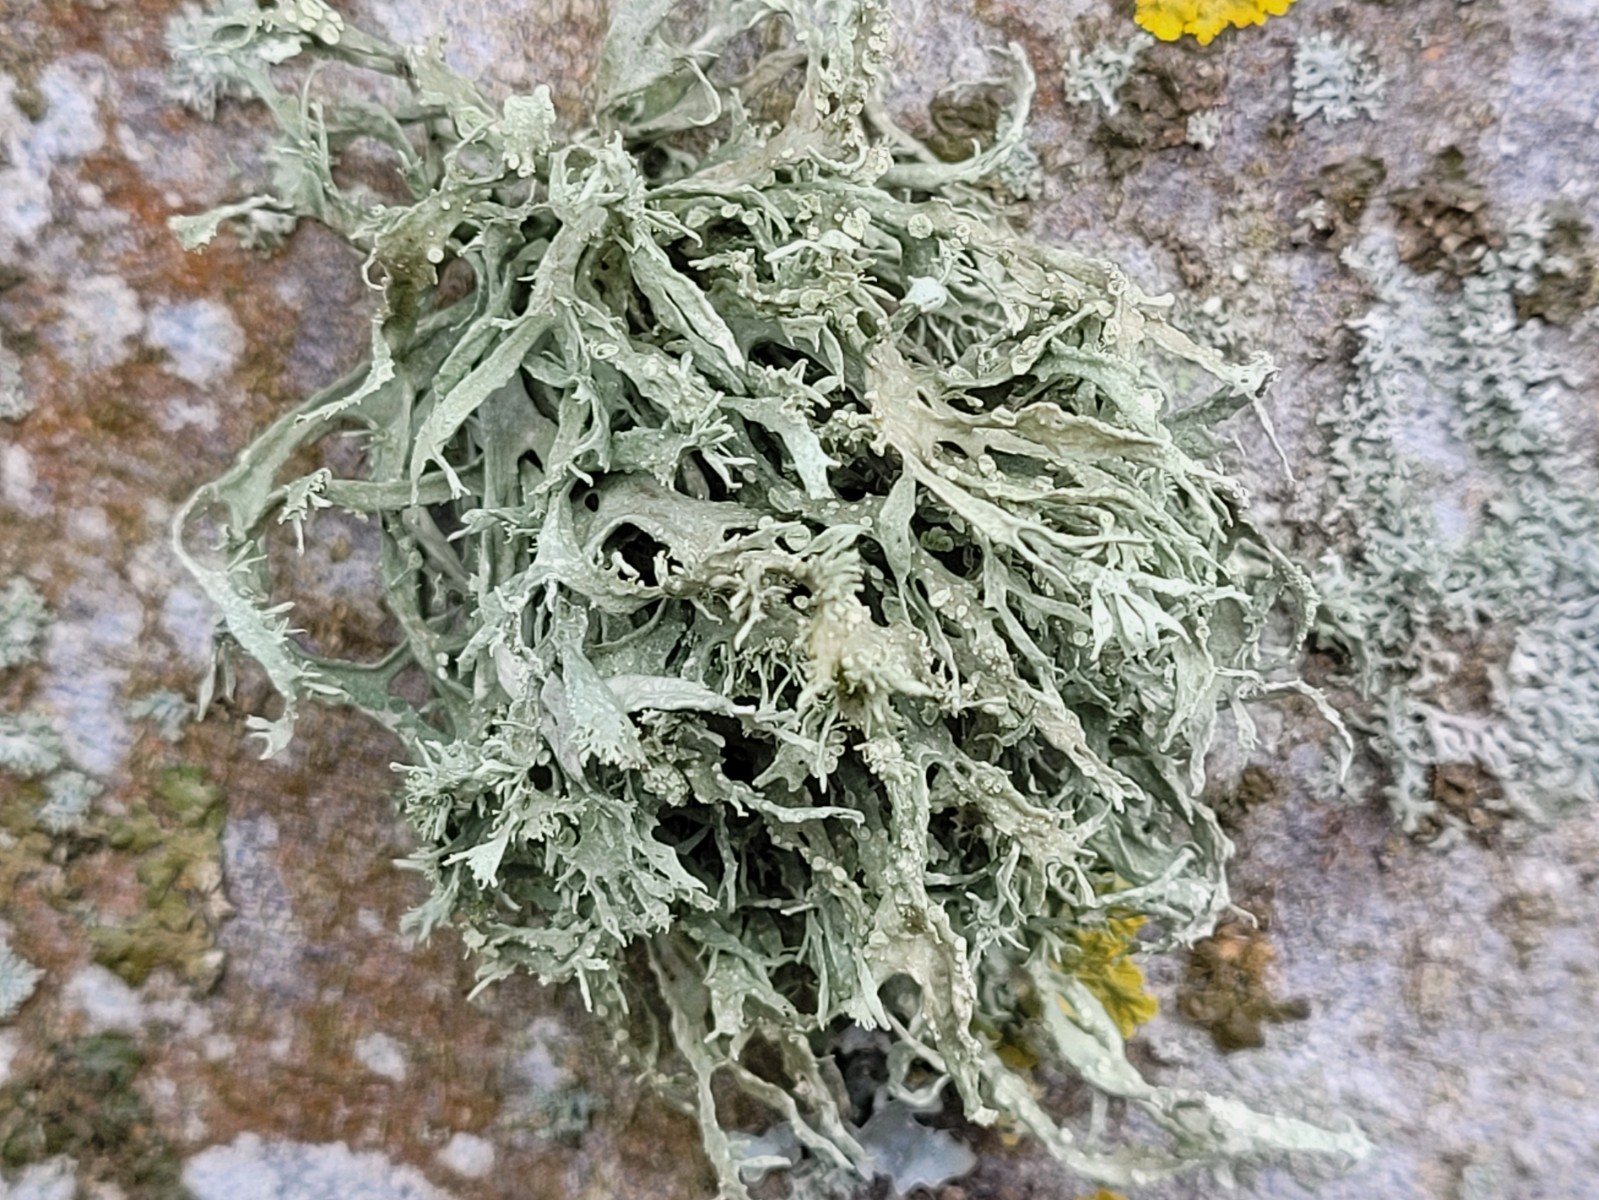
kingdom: Fungi
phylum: Ascomycota
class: Lecanoromycetes
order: Lecanorales
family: Ramalinaceae
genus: Ramalina
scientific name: Ramalina farinacea
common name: melet grenlav
